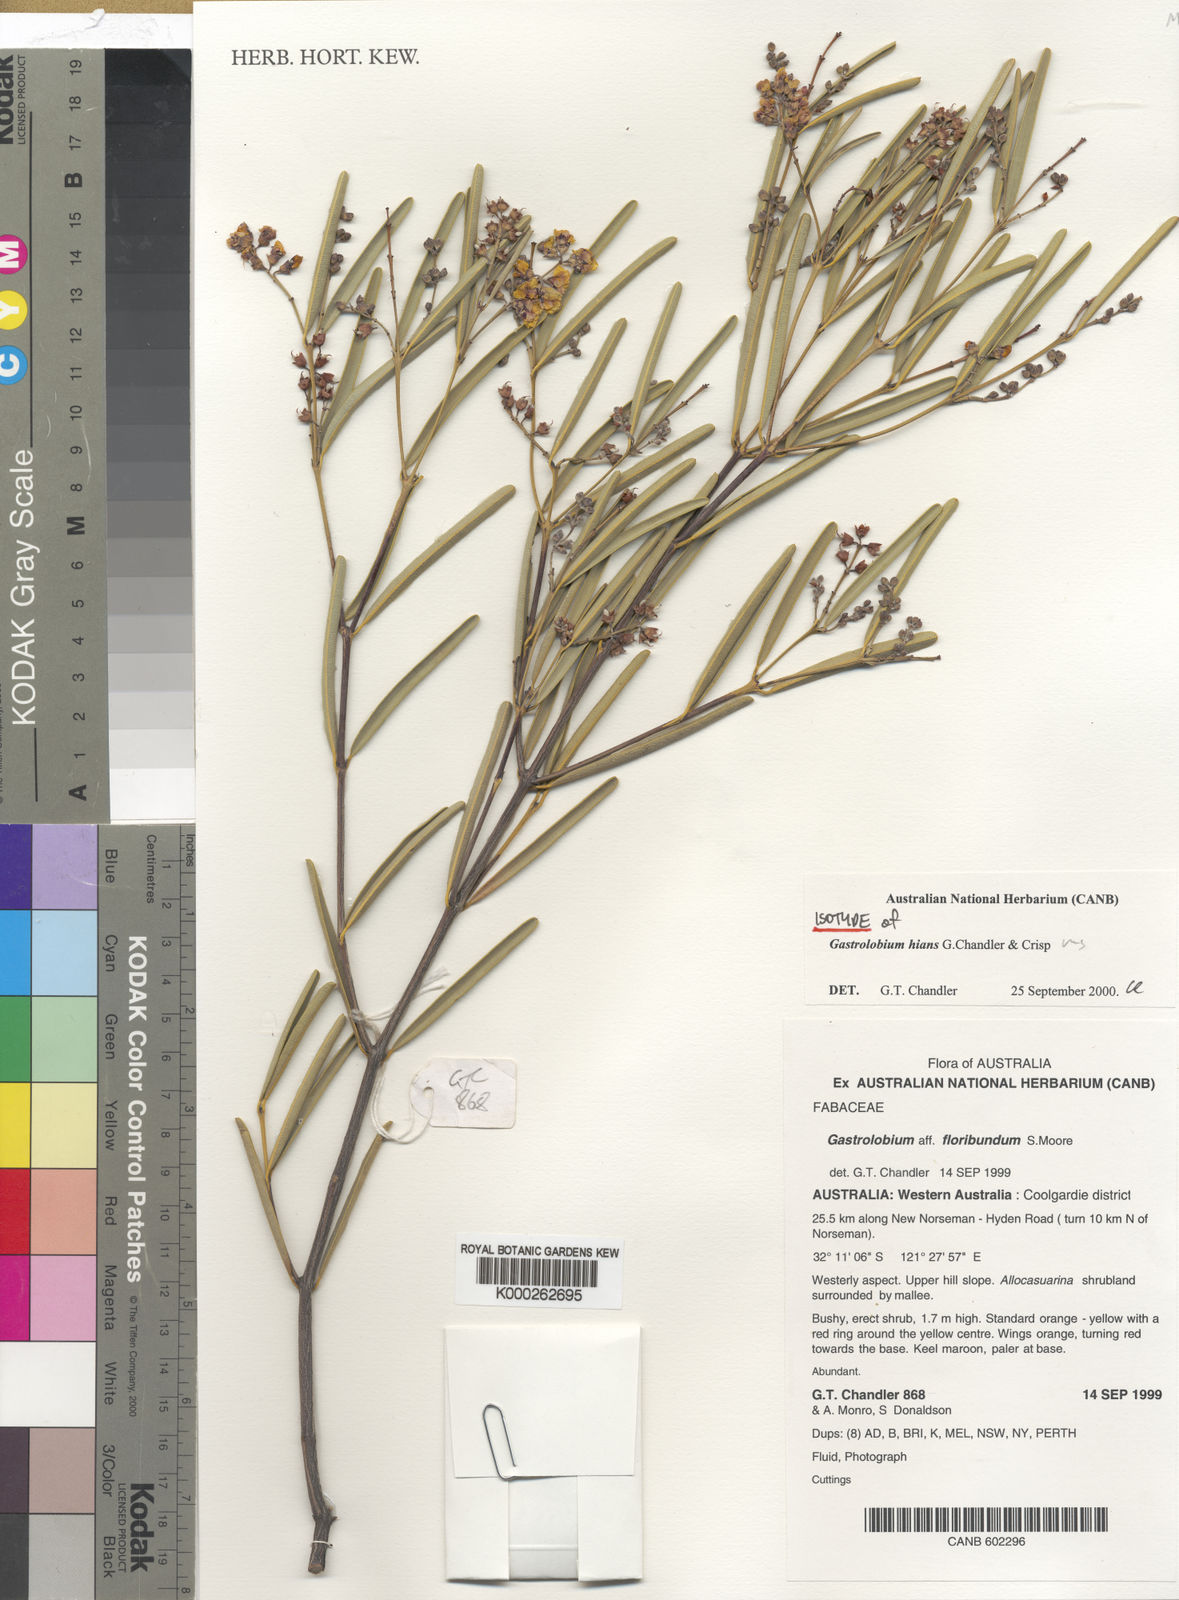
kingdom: Plantae
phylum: Tracheophyta
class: Magnoliopsida
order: Fabales
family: Fabaceae
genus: Gastrolobium
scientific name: Gastrolobium hians
